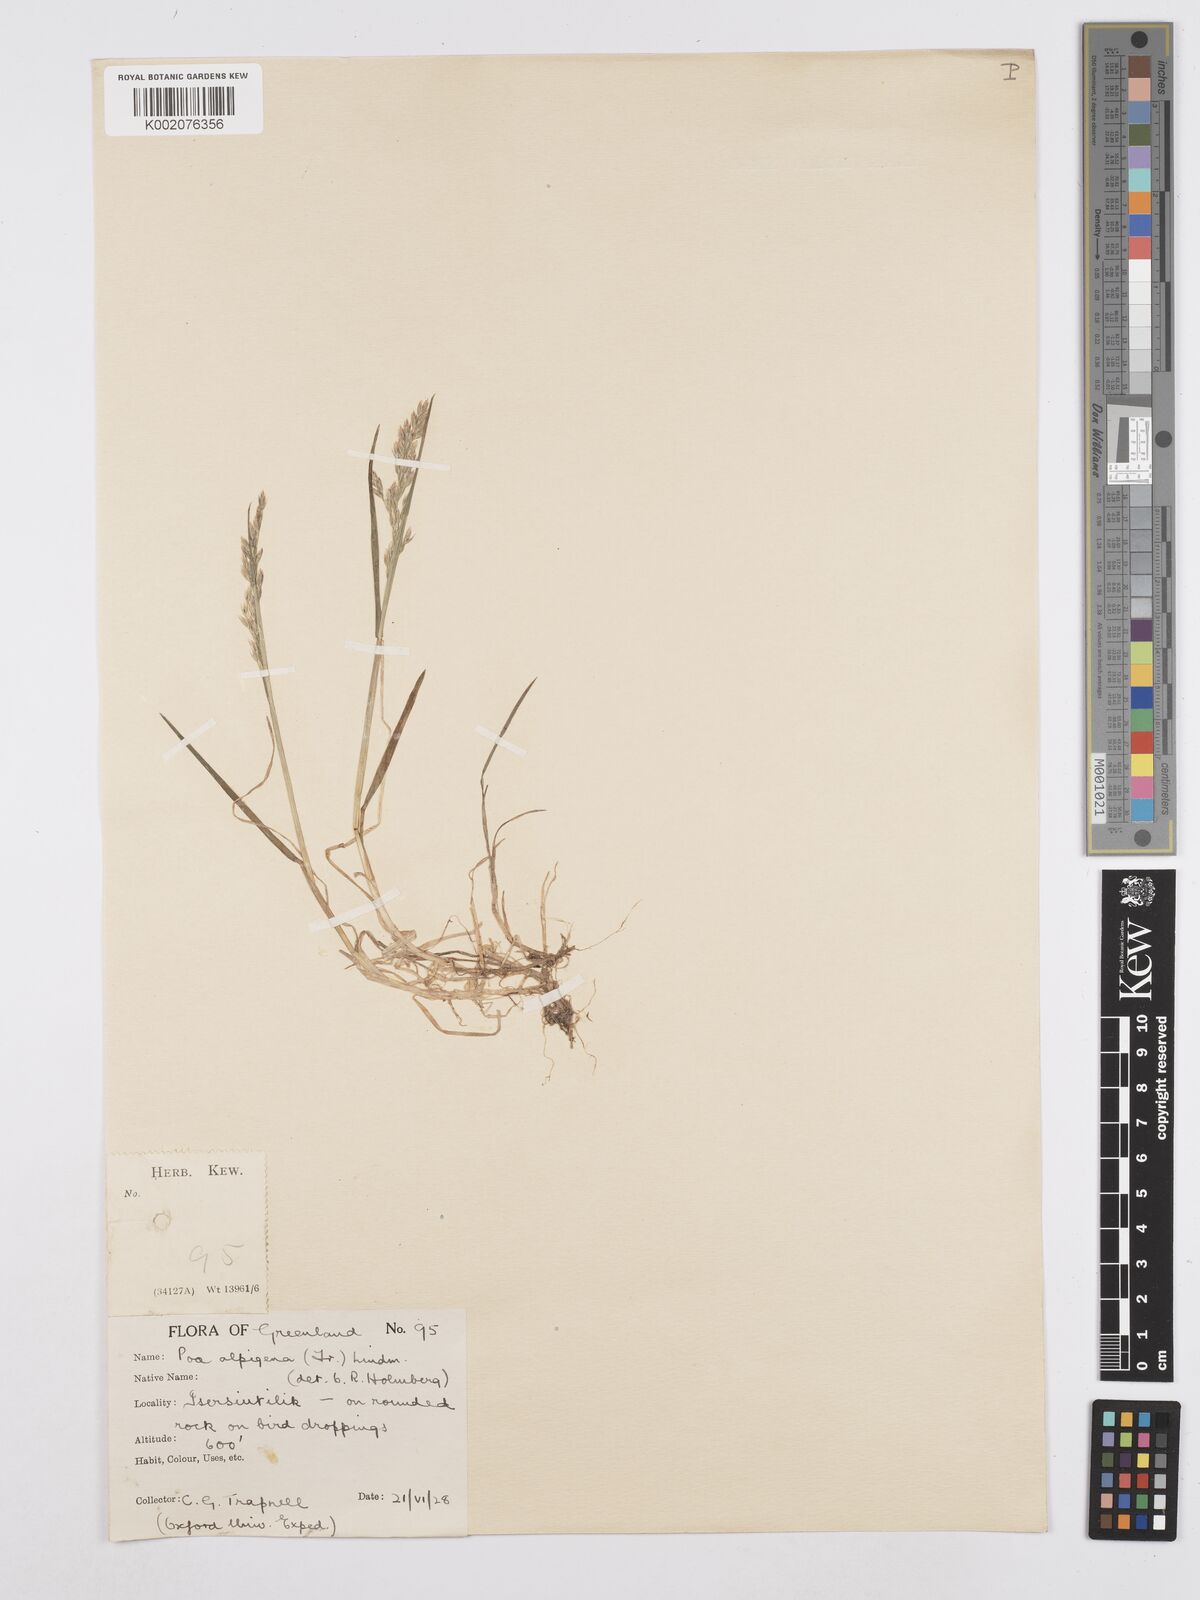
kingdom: Plantae
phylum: Tracheophyta
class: Liliopsida
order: Poales
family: Poaceae
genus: Poa
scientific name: Poa
